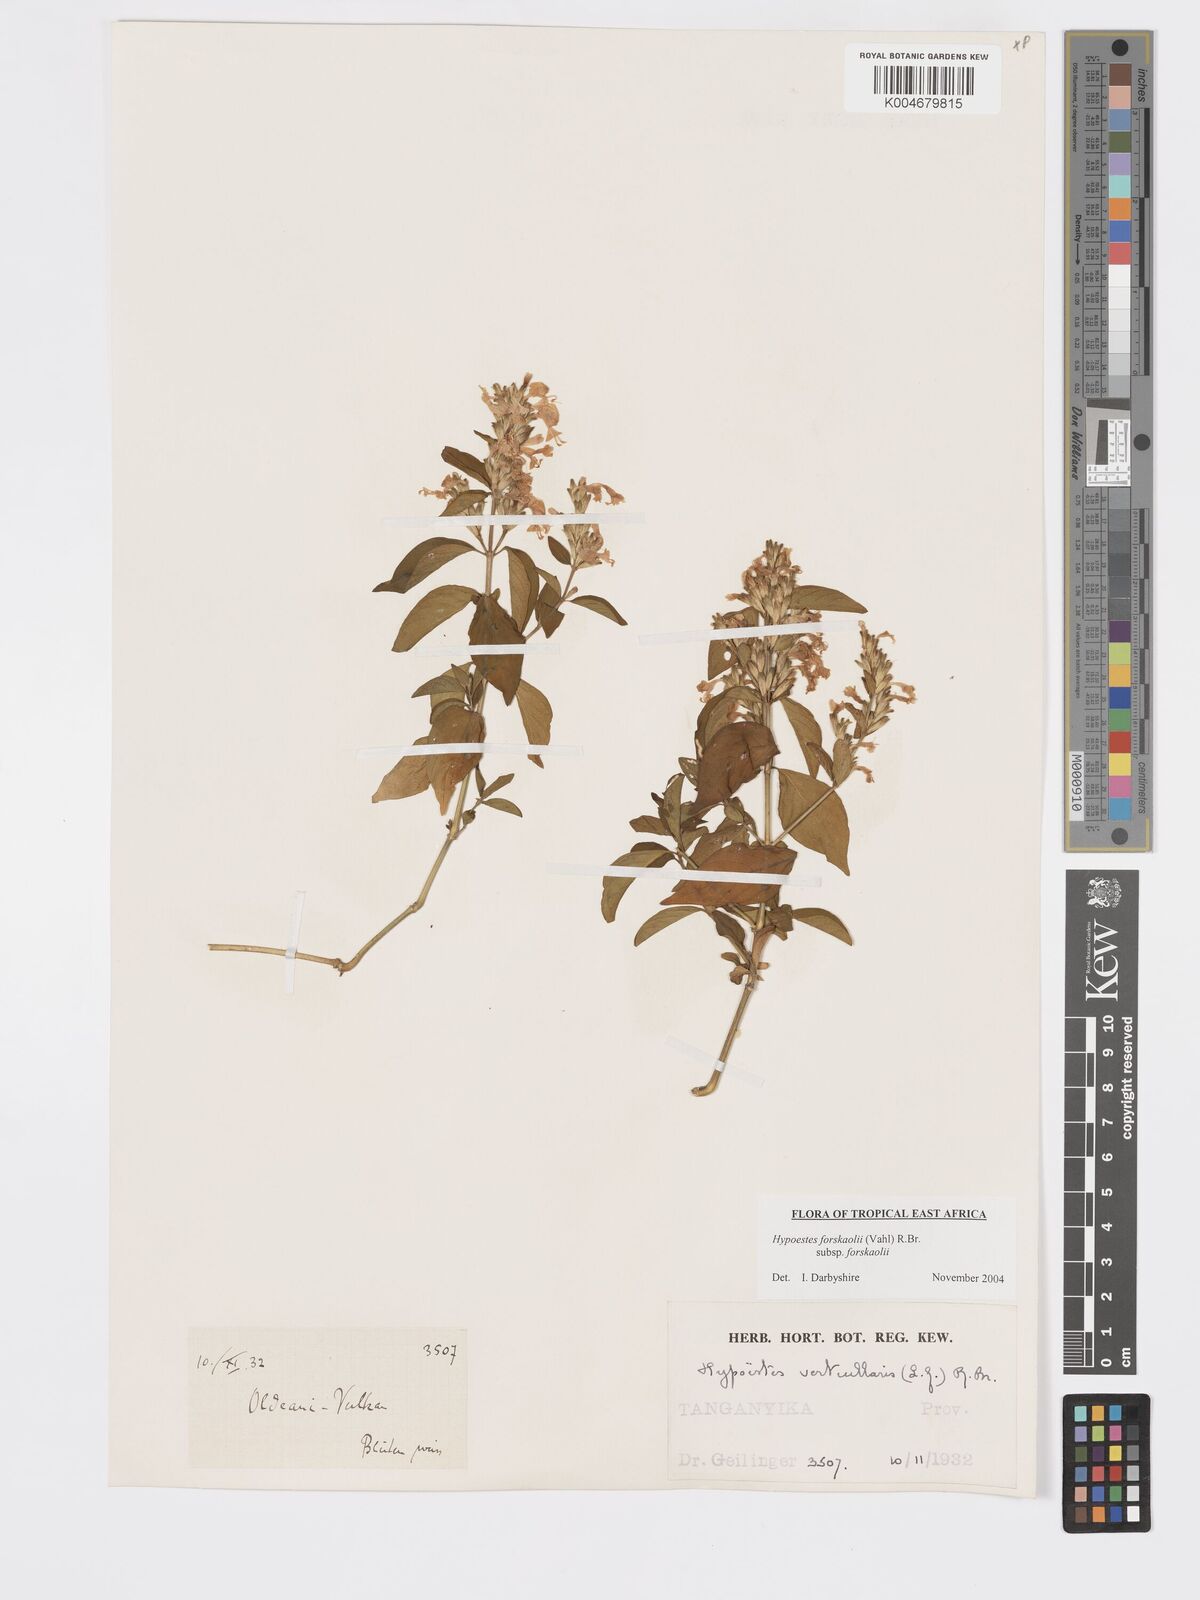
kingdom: Plantae
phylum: Tracheophyta
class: Magnoliopsida
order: Lamiales
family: Acanthaceae
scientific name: Acanthaceae
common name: Acanthaceae
